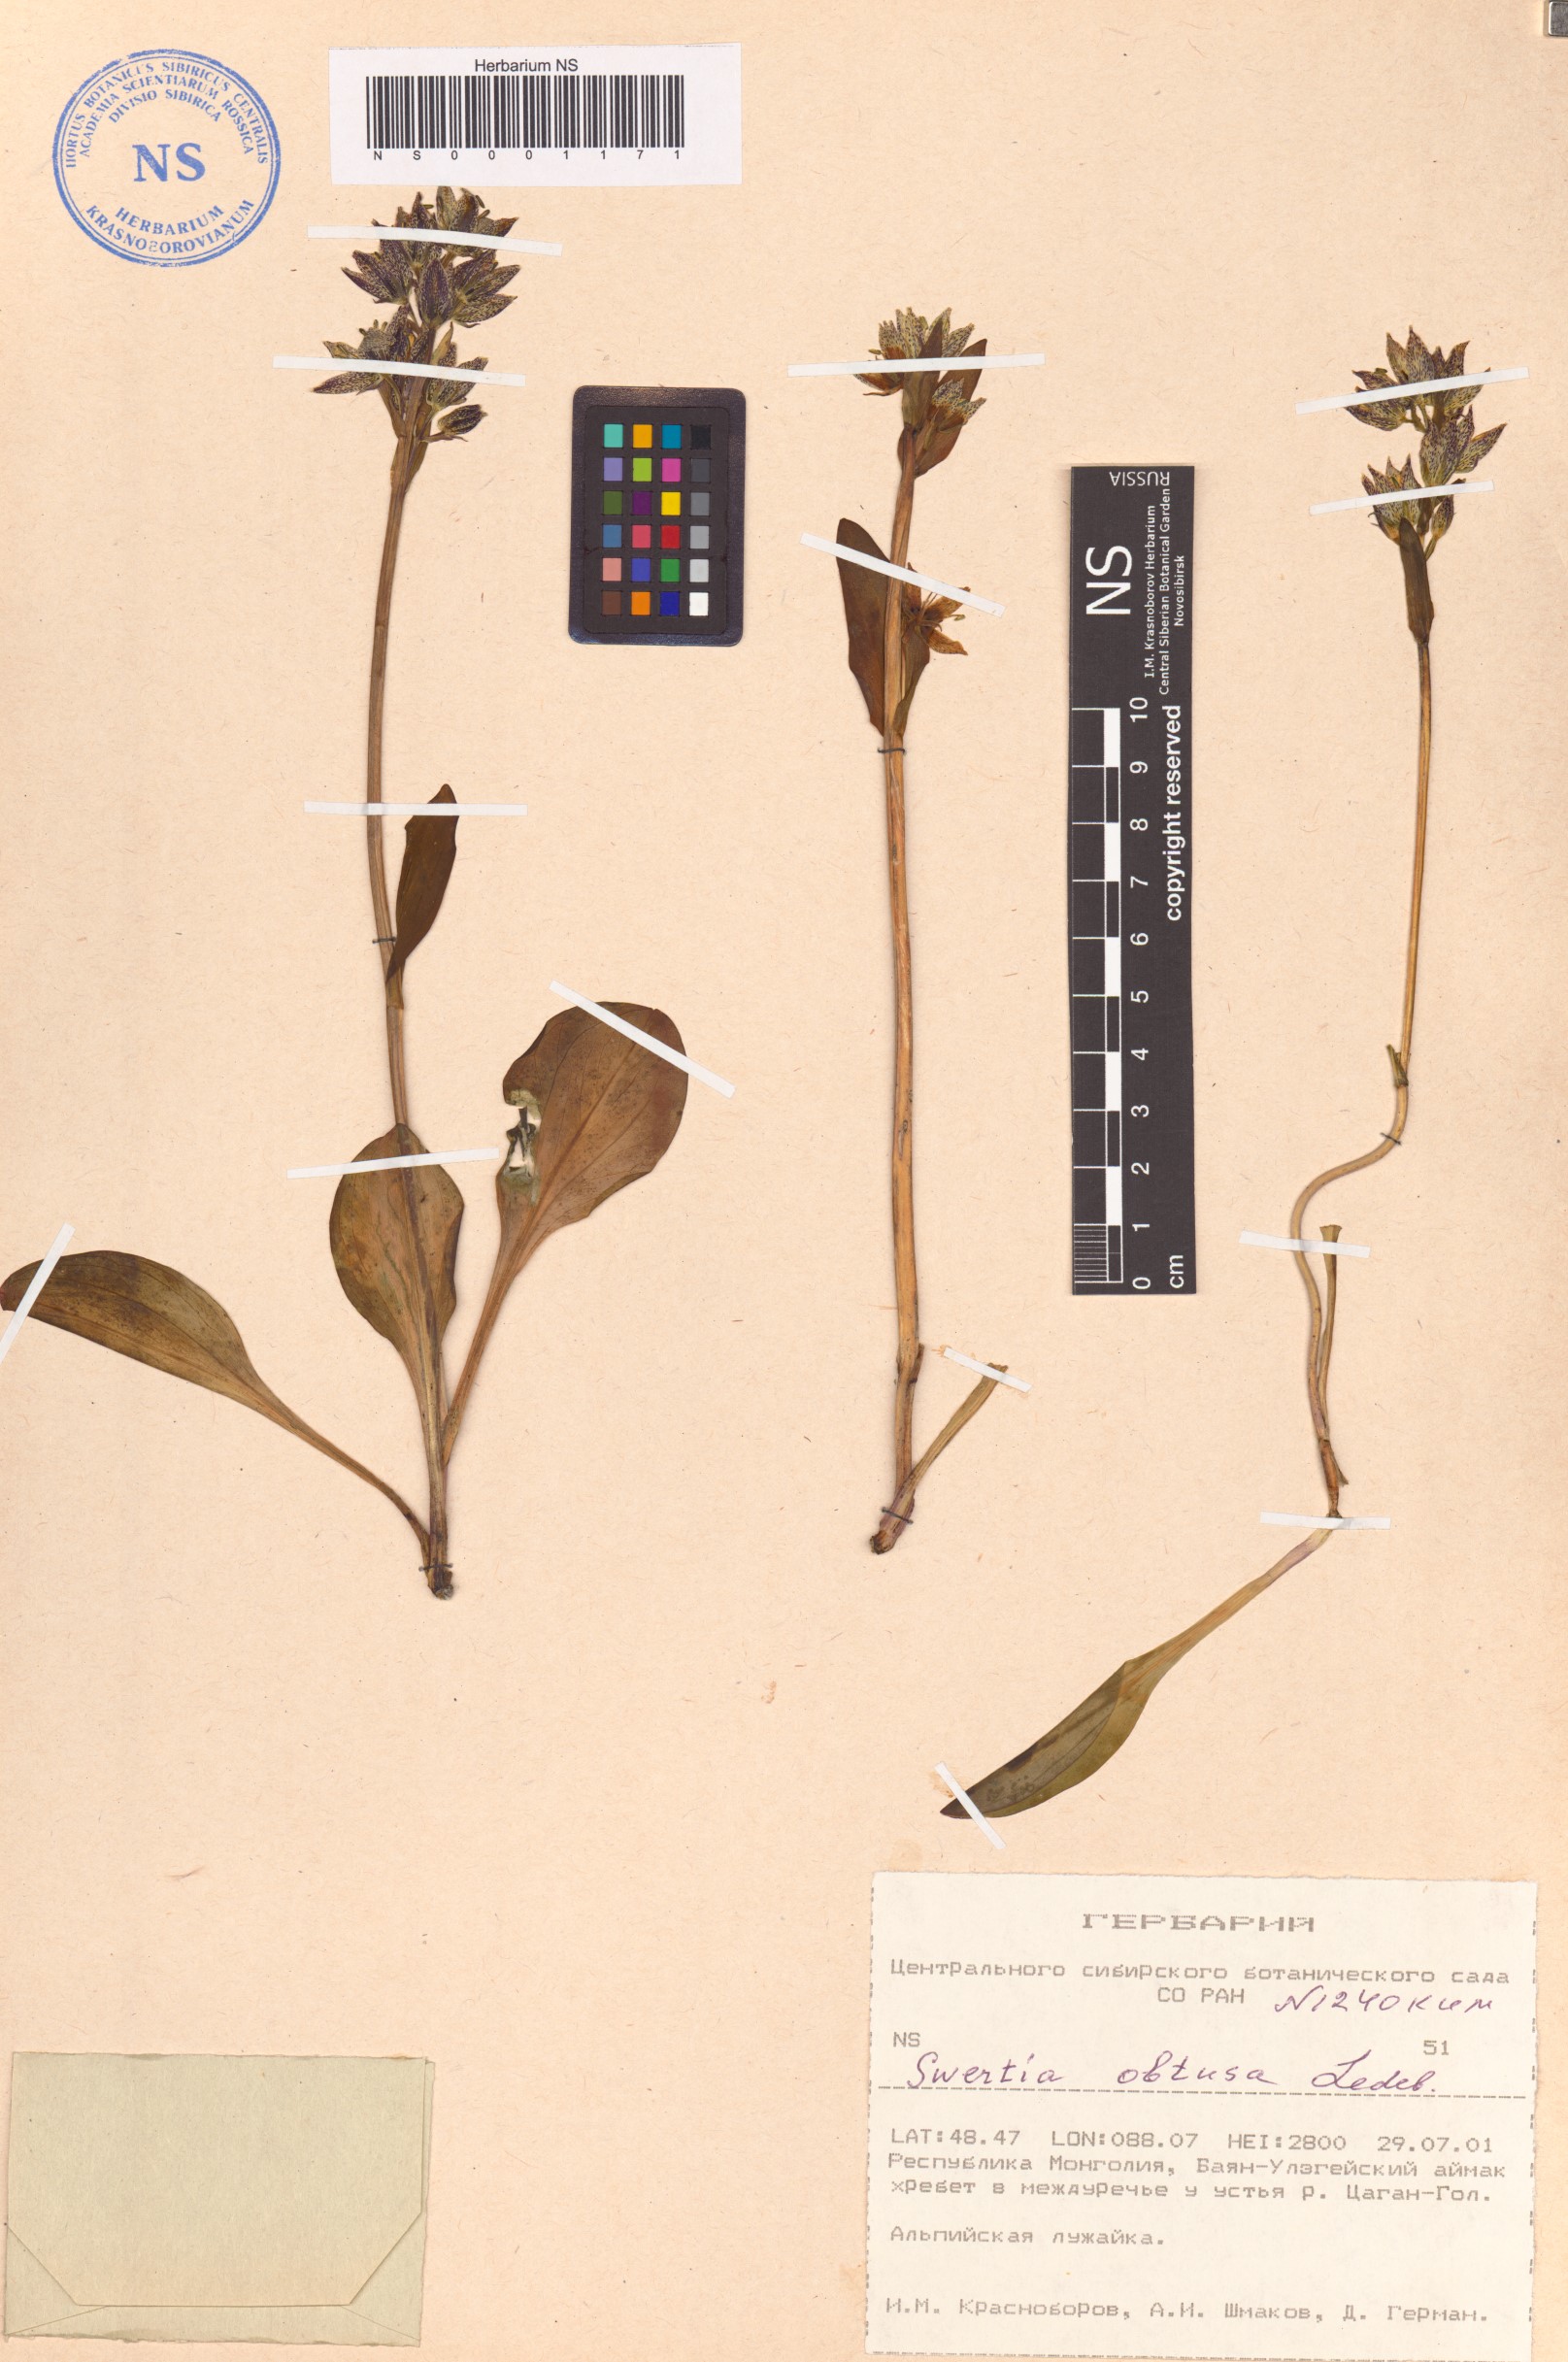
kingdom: Plantae
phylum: Tracheophyta
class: Magnoliopsida
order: Gentianales
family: Gentianaceae
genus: Swertia
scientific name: Swertia obtusa
